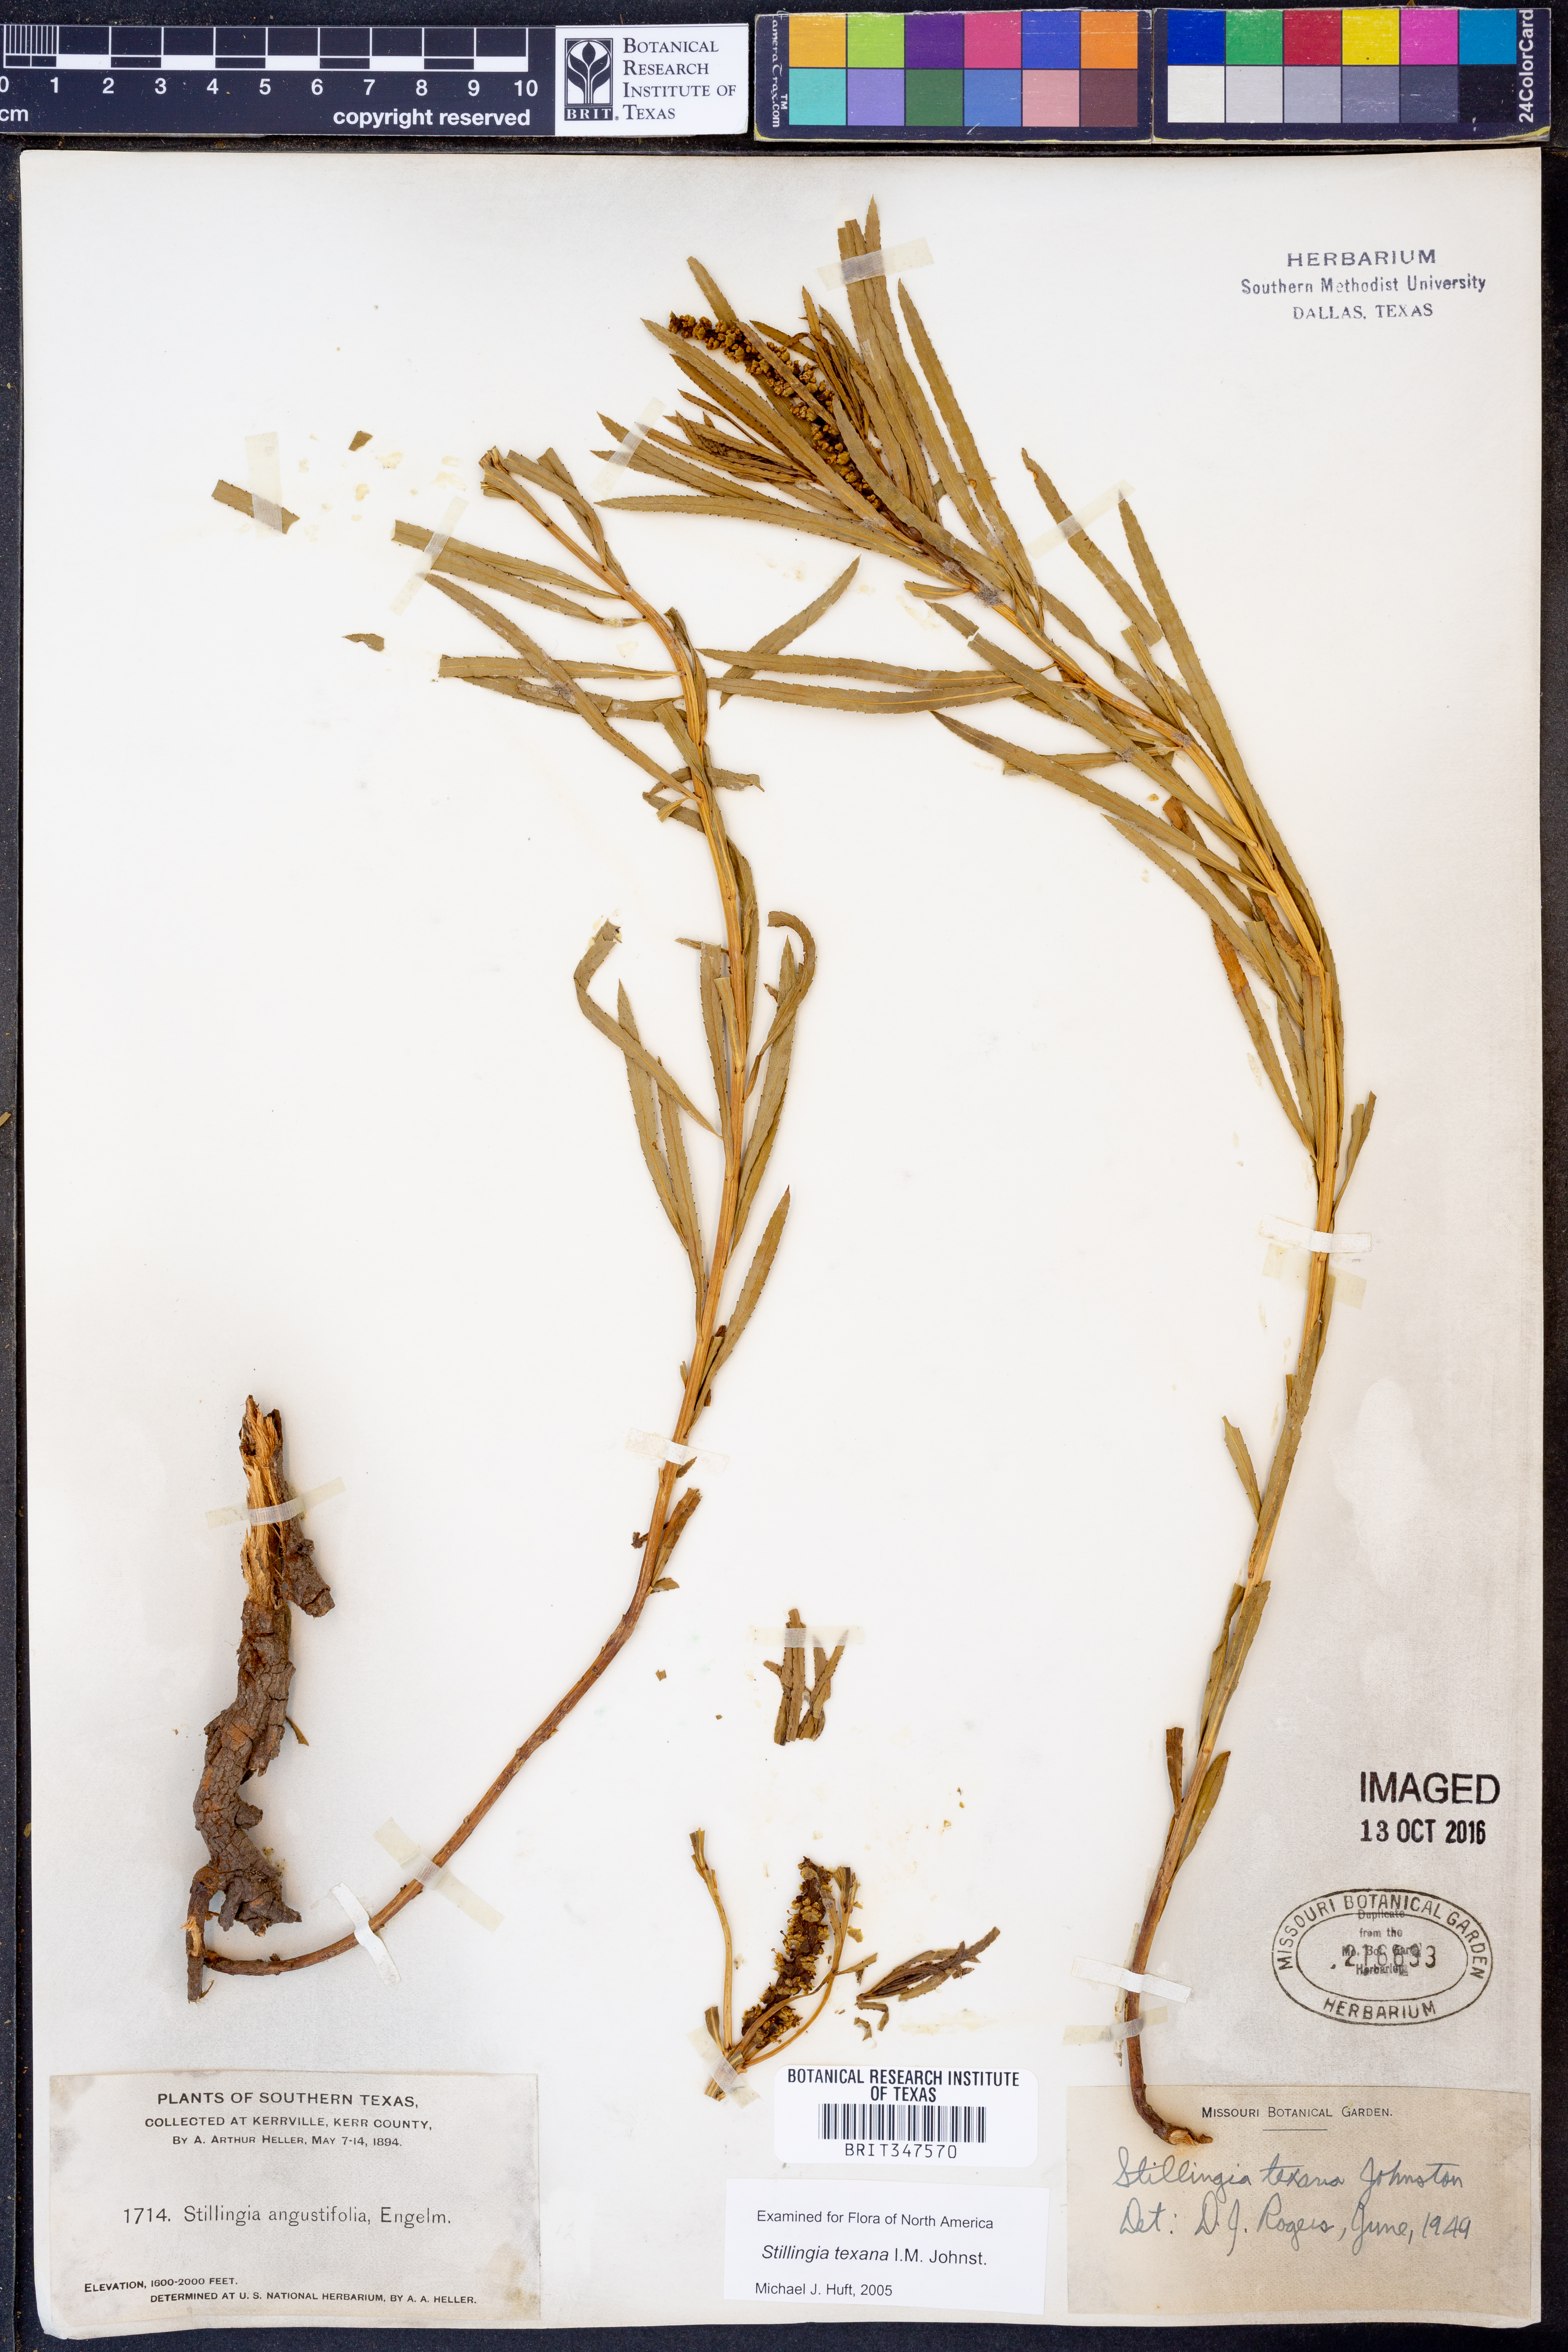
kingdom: Plantae
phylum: Tracheophyta
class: Magnoliopsida
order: Malpighiales
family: Euphorbiaceae
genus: Stillingia
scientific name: Stillingia texana
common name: Texas stillingia
